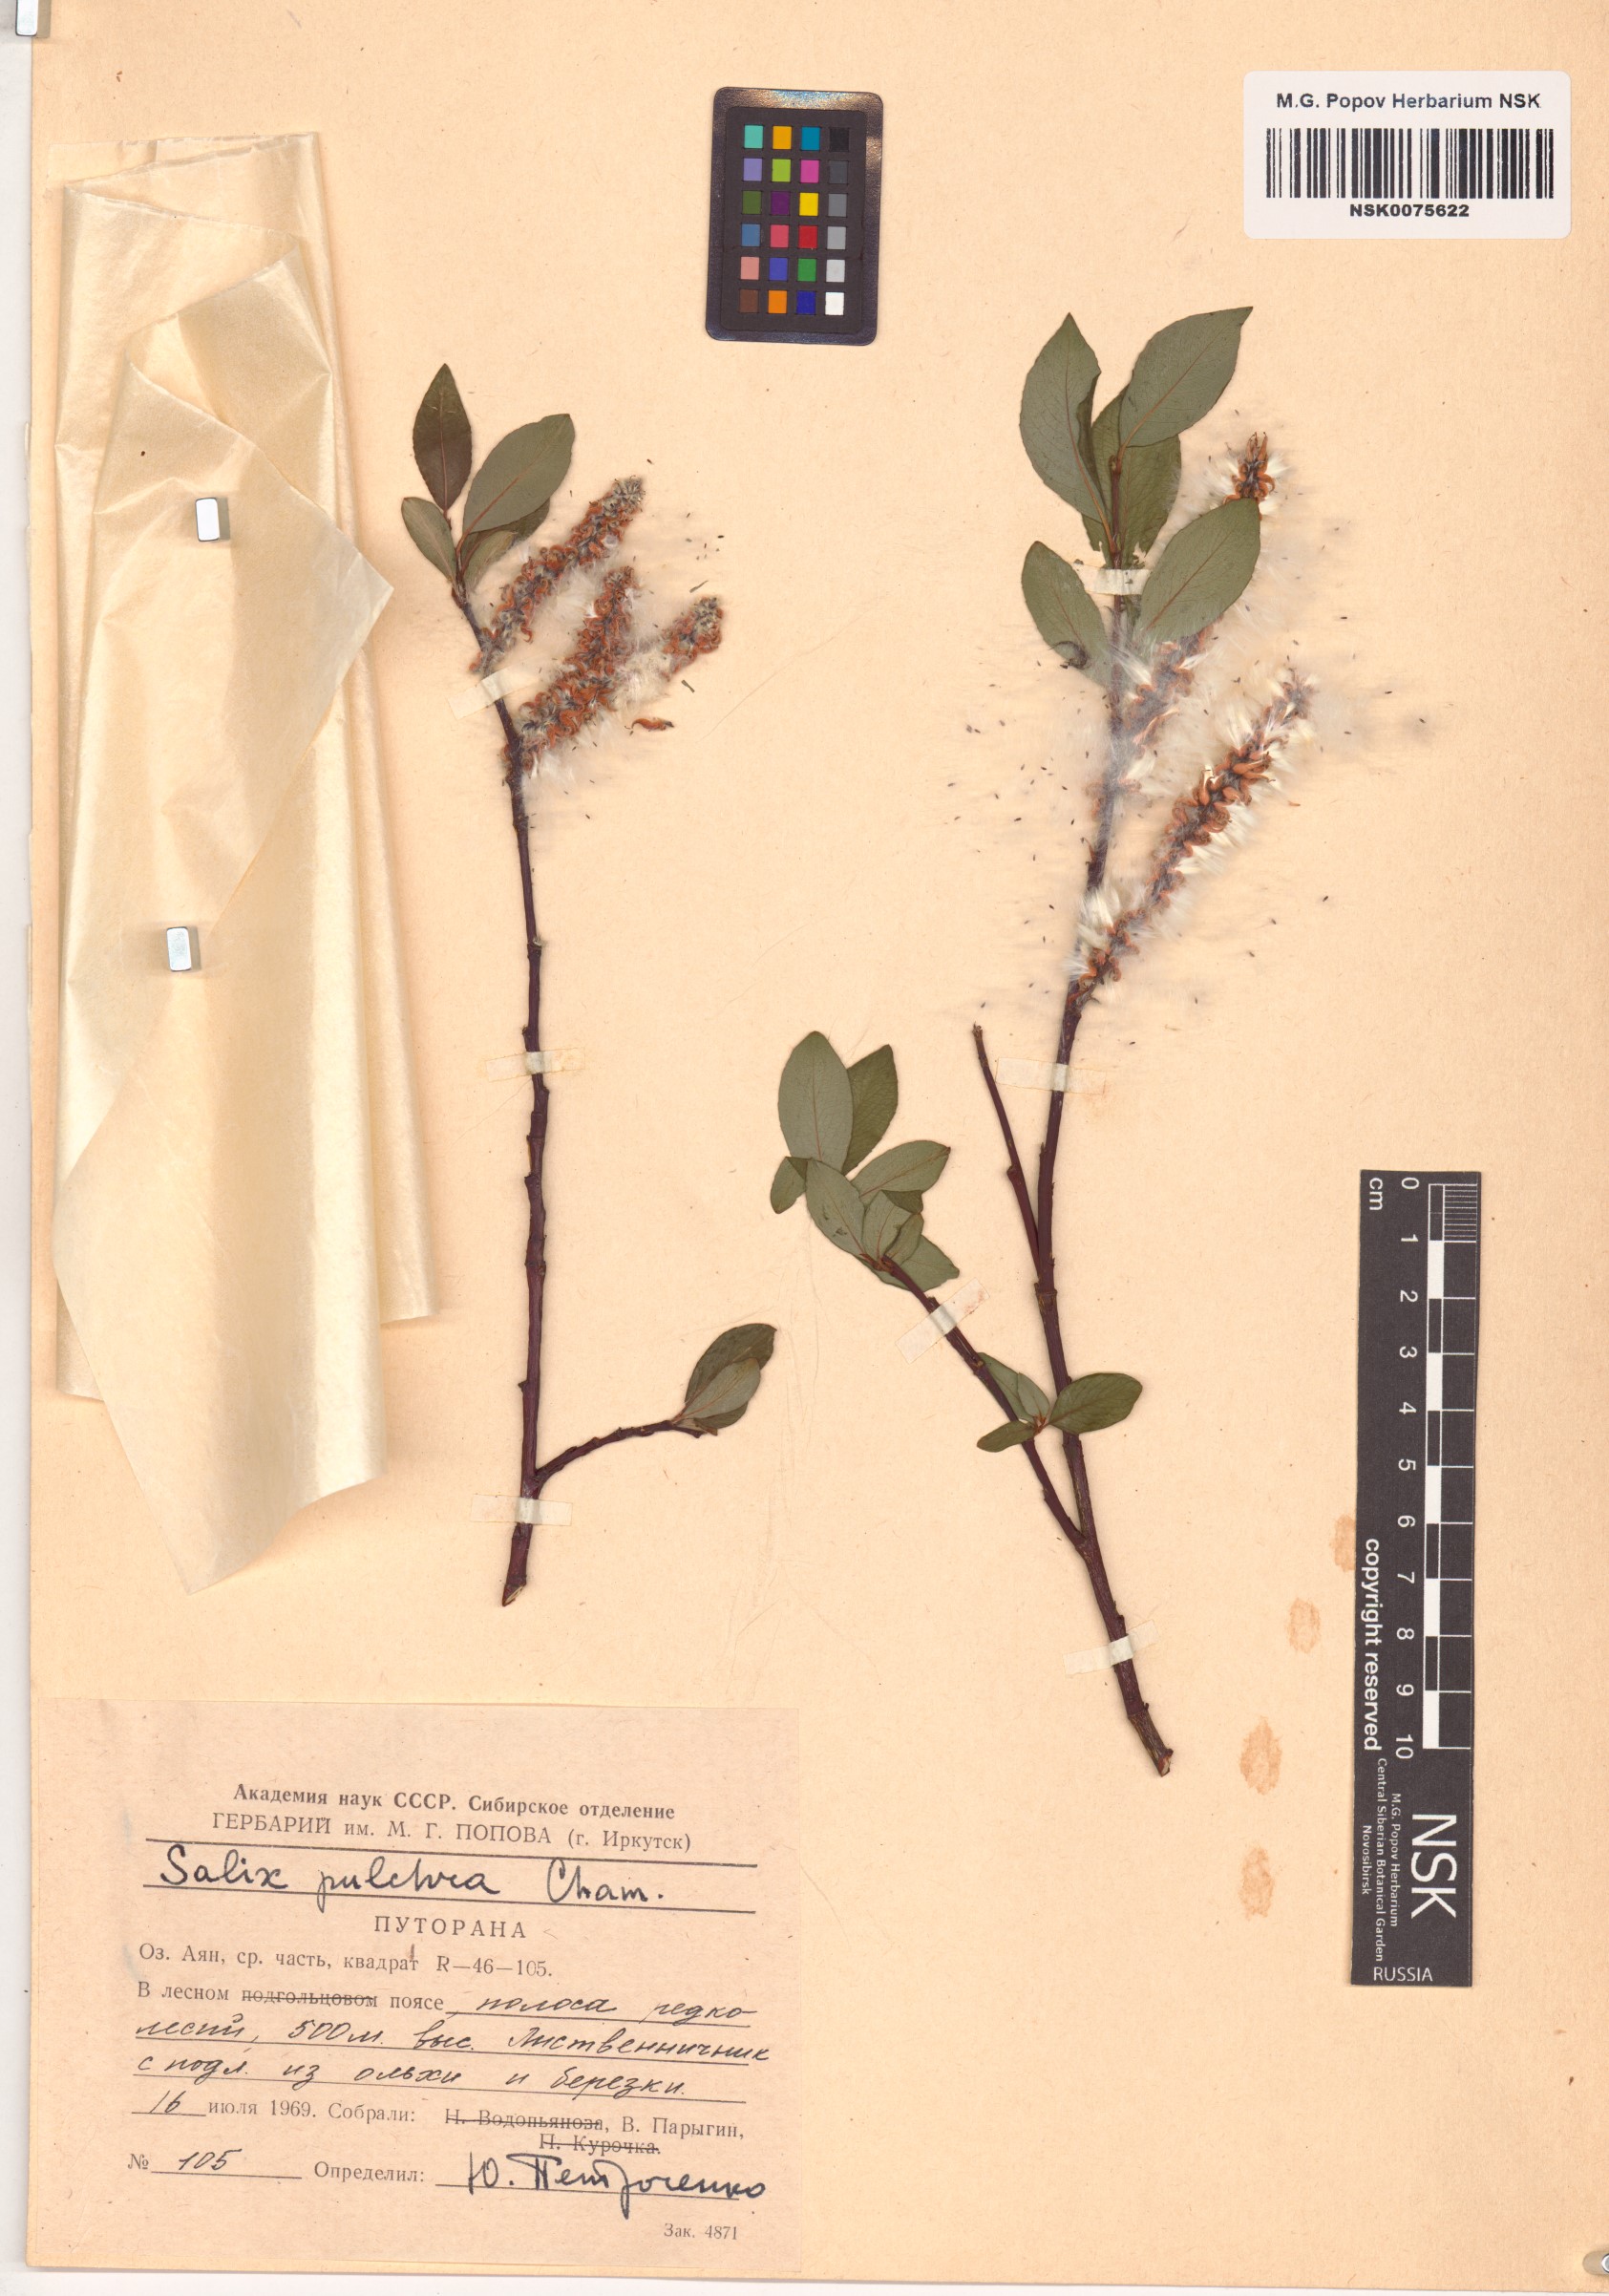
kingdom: Plantae
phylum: Tracheophyta
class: Magnoliopsida
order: Malpighiales
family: Salicaceae
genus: Salix
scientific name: Salix pulchra
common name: Diamond-leaved willow
